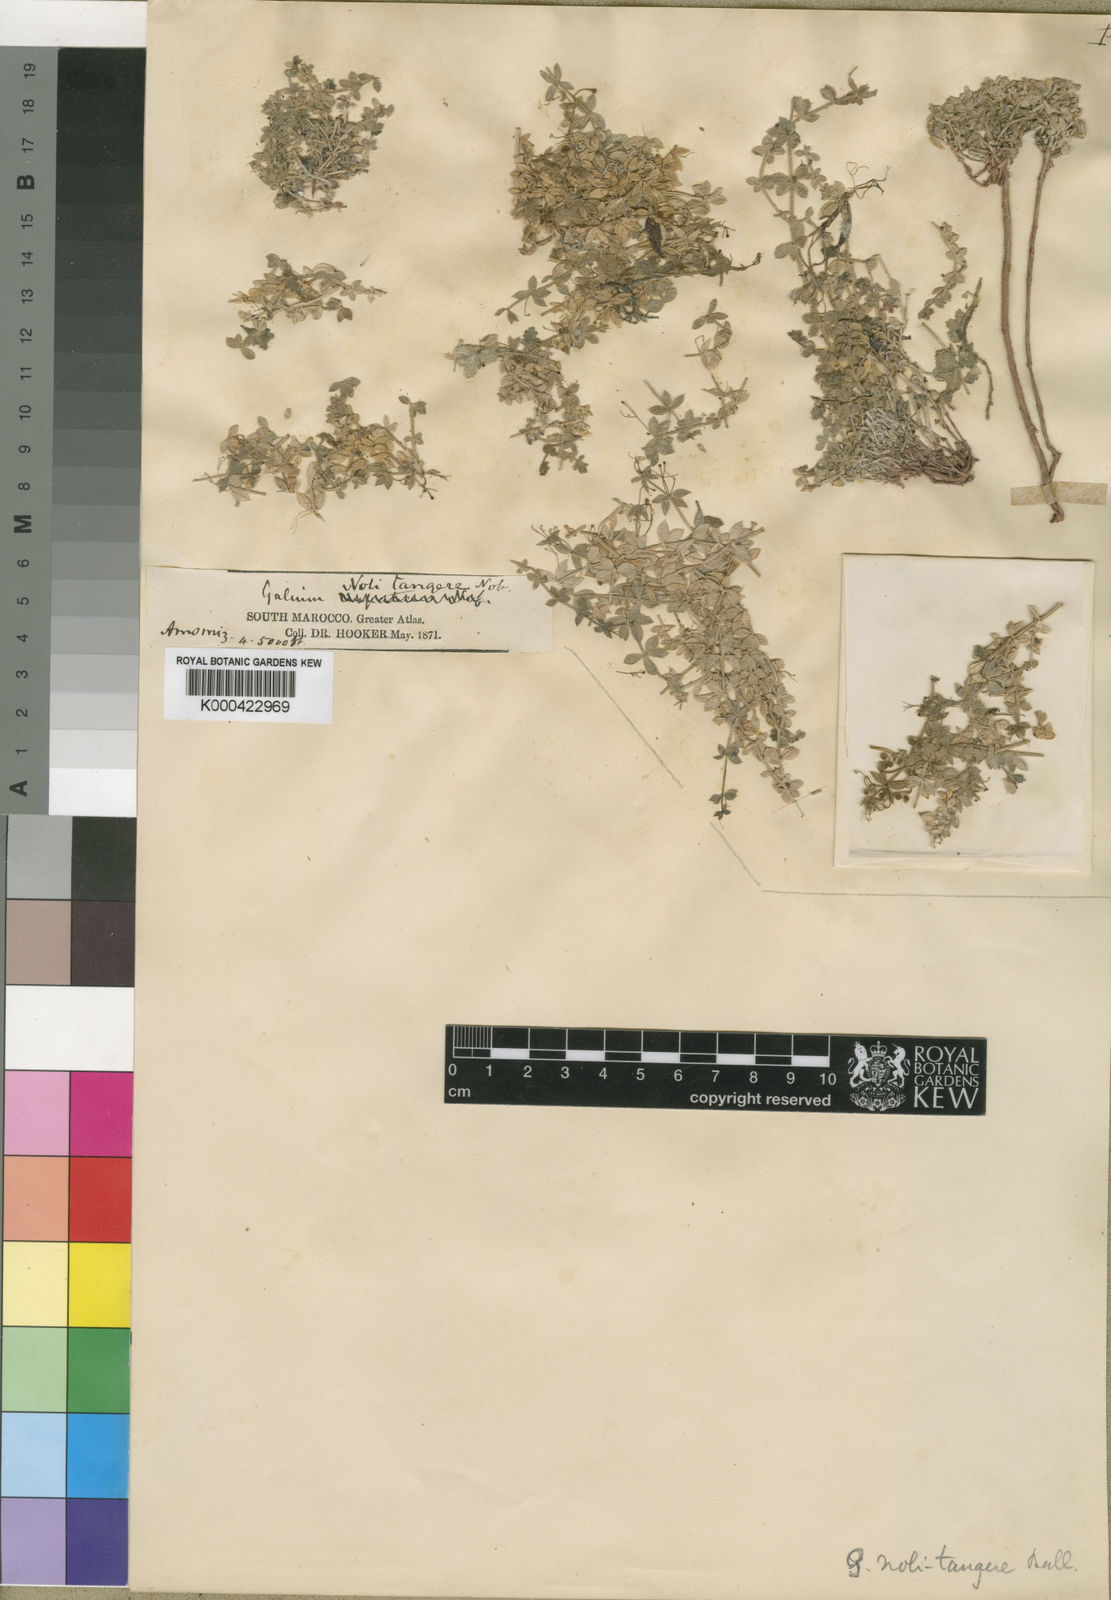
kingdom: Plantae
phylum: Tracheophyta
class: Magnoliopsida
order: Gentianales
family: Rubiaceae
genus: Galium
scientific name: Galium noli-tangere
